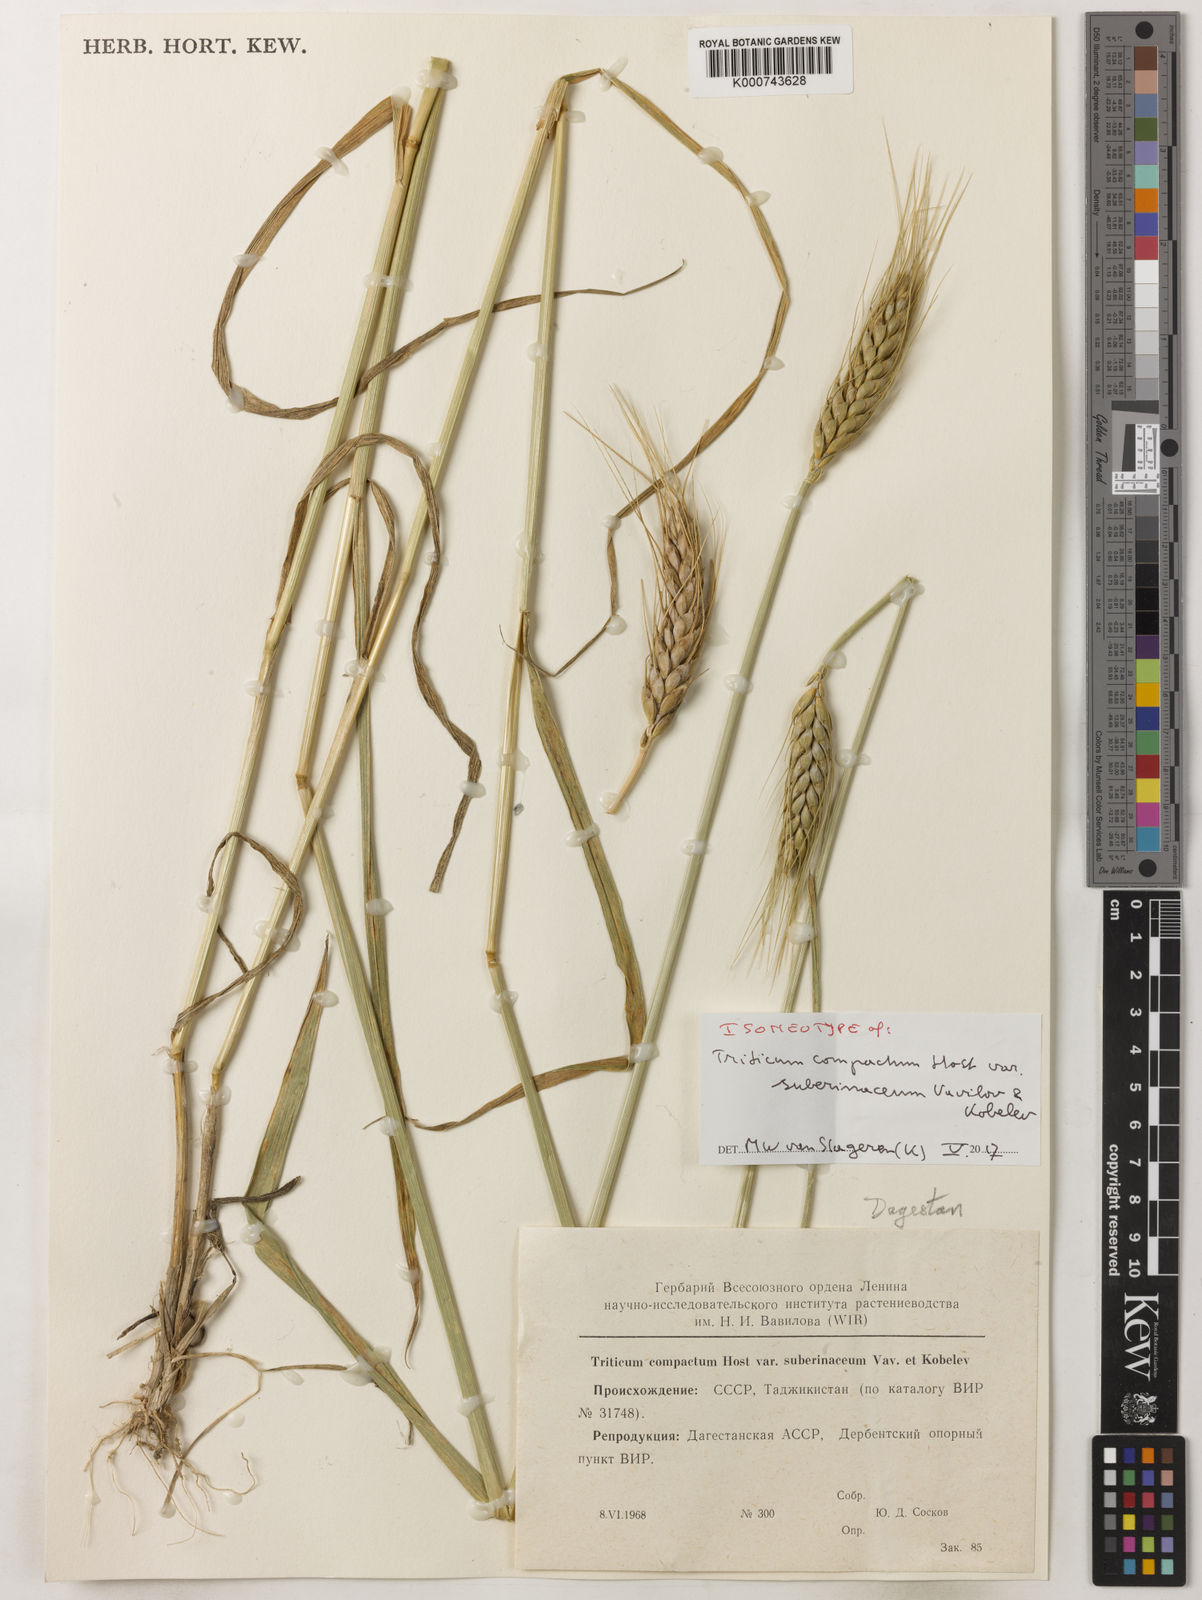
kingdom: Plantae
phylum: Tracheophyta
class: Liliopsida
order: Poales
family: Poaceae
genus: Triticum
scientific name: Triticum aestivum
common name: Common wheat
